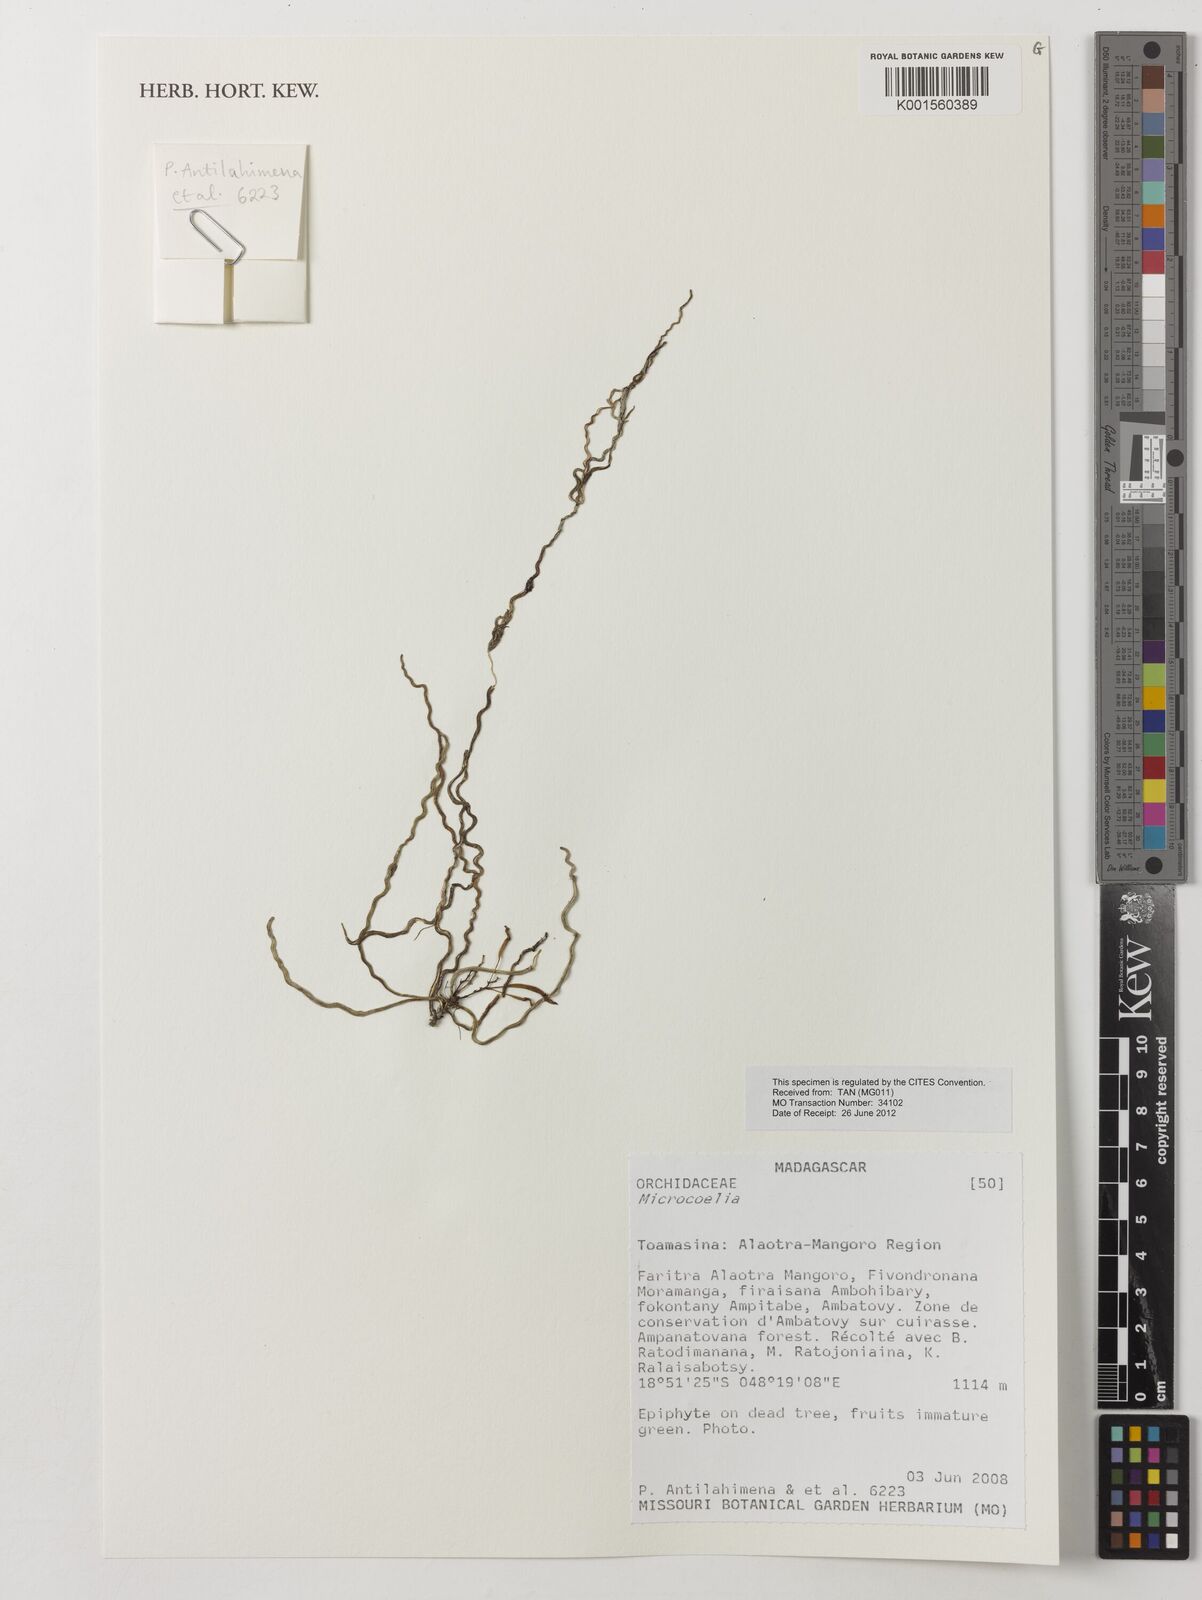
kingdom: Plantae
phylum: Tracheophyta
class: Liliopsida
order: Asparagales
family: Orchidaceae
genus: Microcoelia
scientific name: Microcoelia
